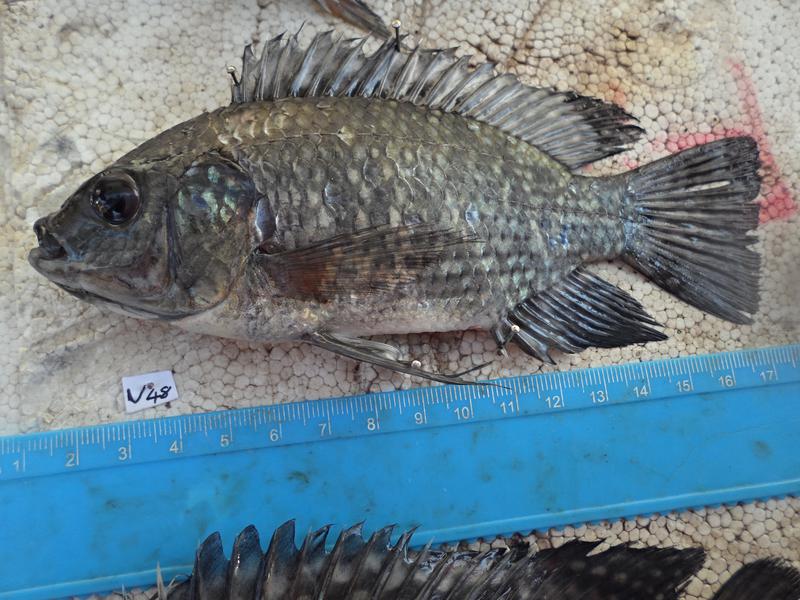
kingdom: Animalia
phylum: Chordata
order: Perciformes
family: Cichlidae
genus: Oreochromis
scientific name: Oreochromis leucostictus
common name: Blue spotted tilapia
